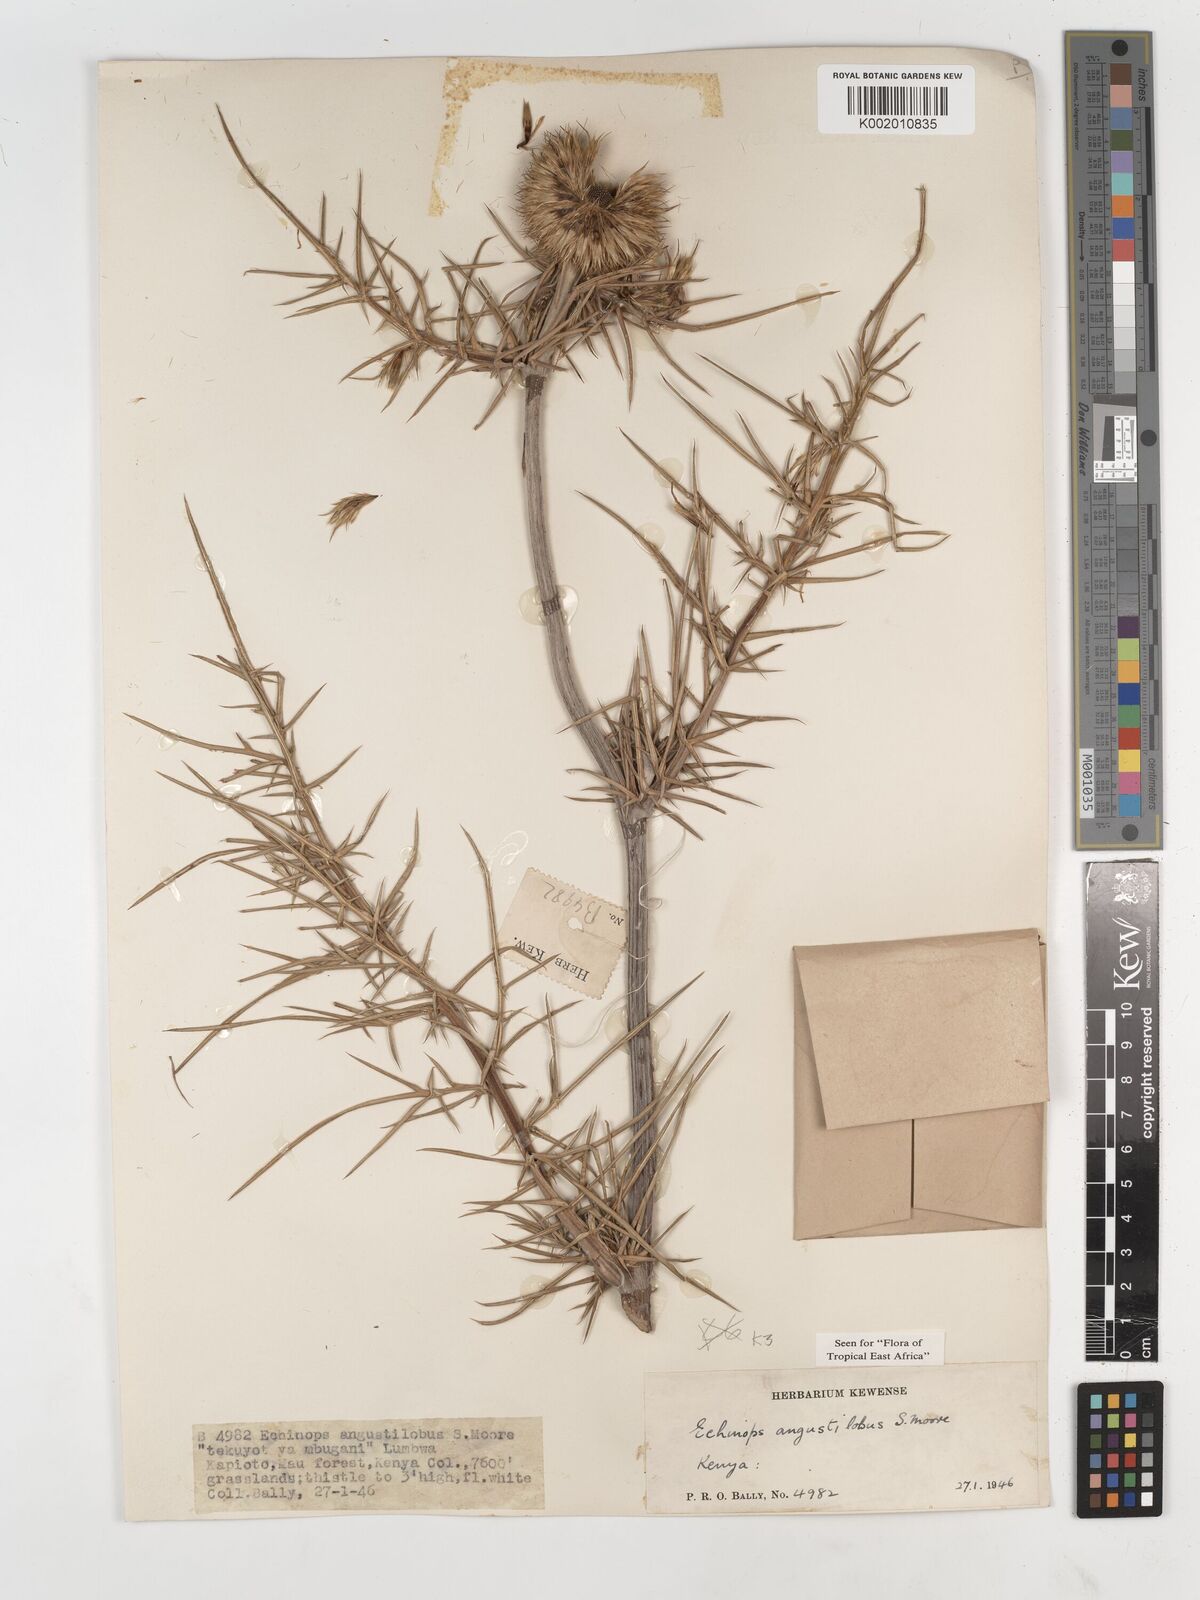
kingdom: Plantae
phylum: Tracheophyta
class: Magnoliopsida
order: Asterales
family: Asteraceae
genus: Echinops
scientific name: Echinops angustilobus
